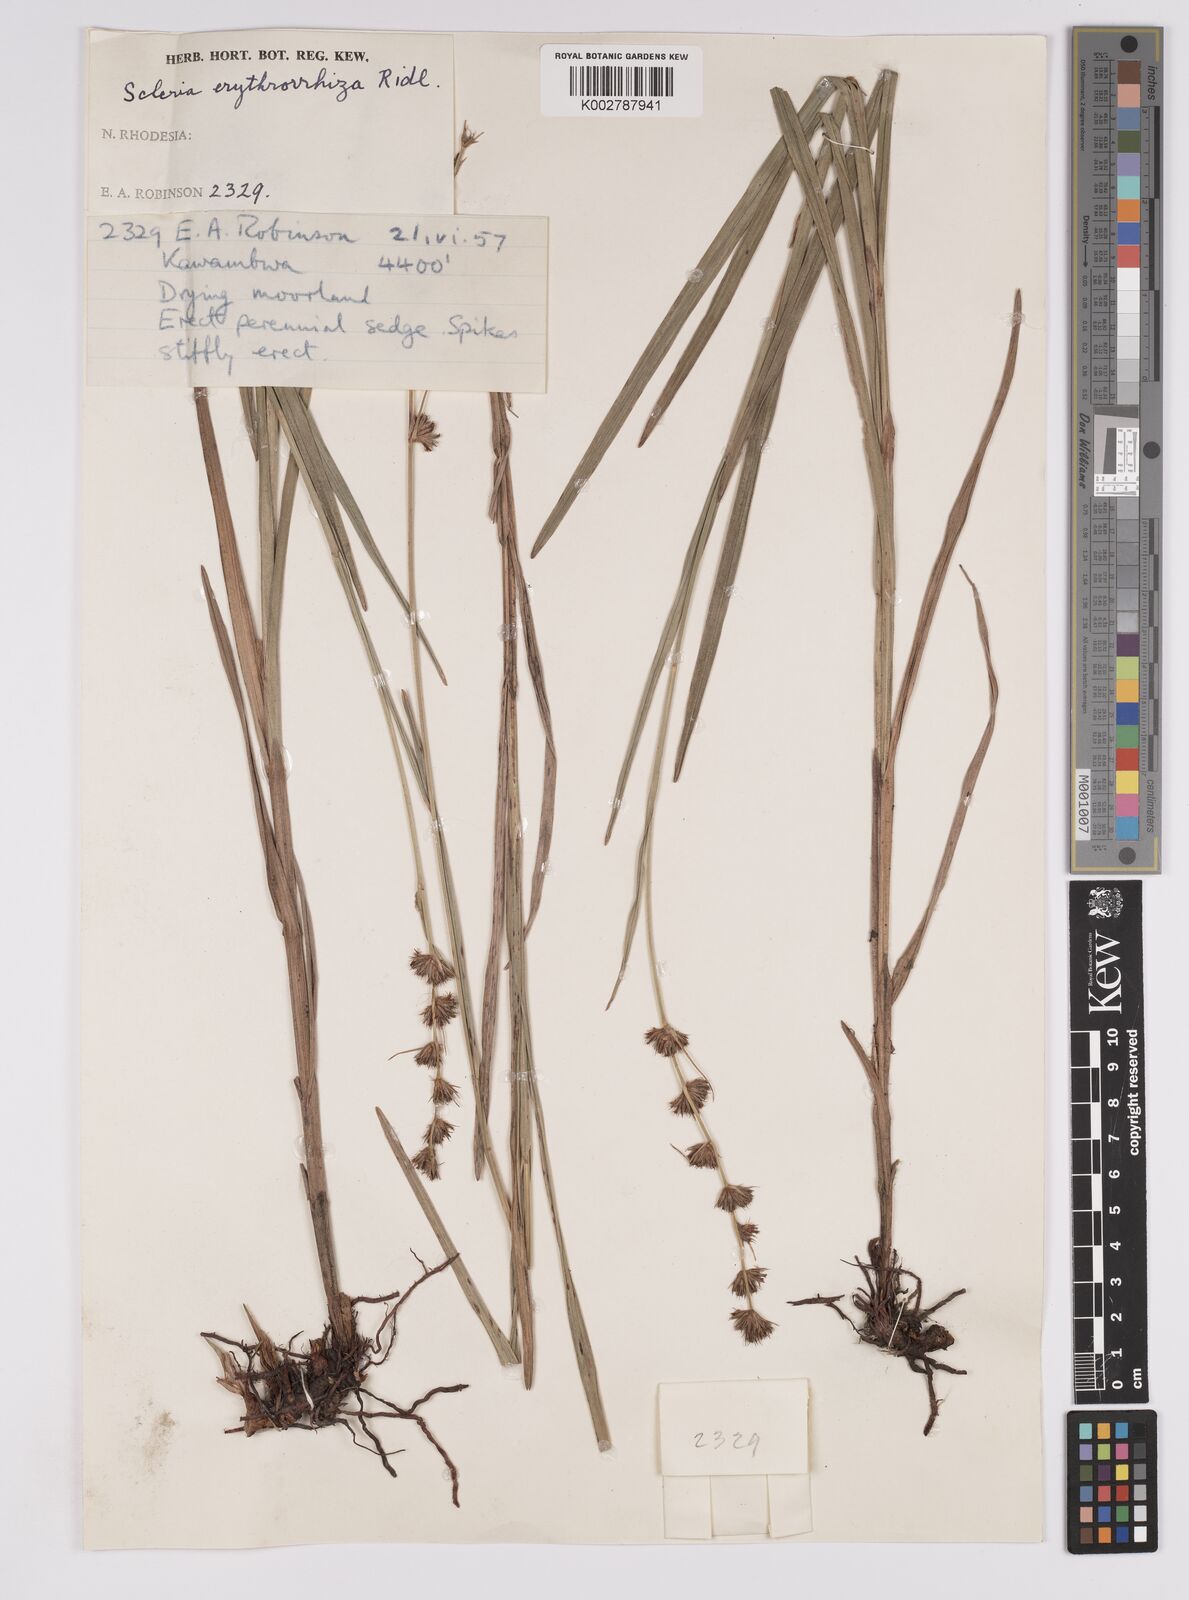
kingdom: Plantae
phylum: Tracheophyta
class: Liliopsida
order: Poales
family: Cyperaceae
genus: Scleria
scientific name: Scleria erythrorrhiza
